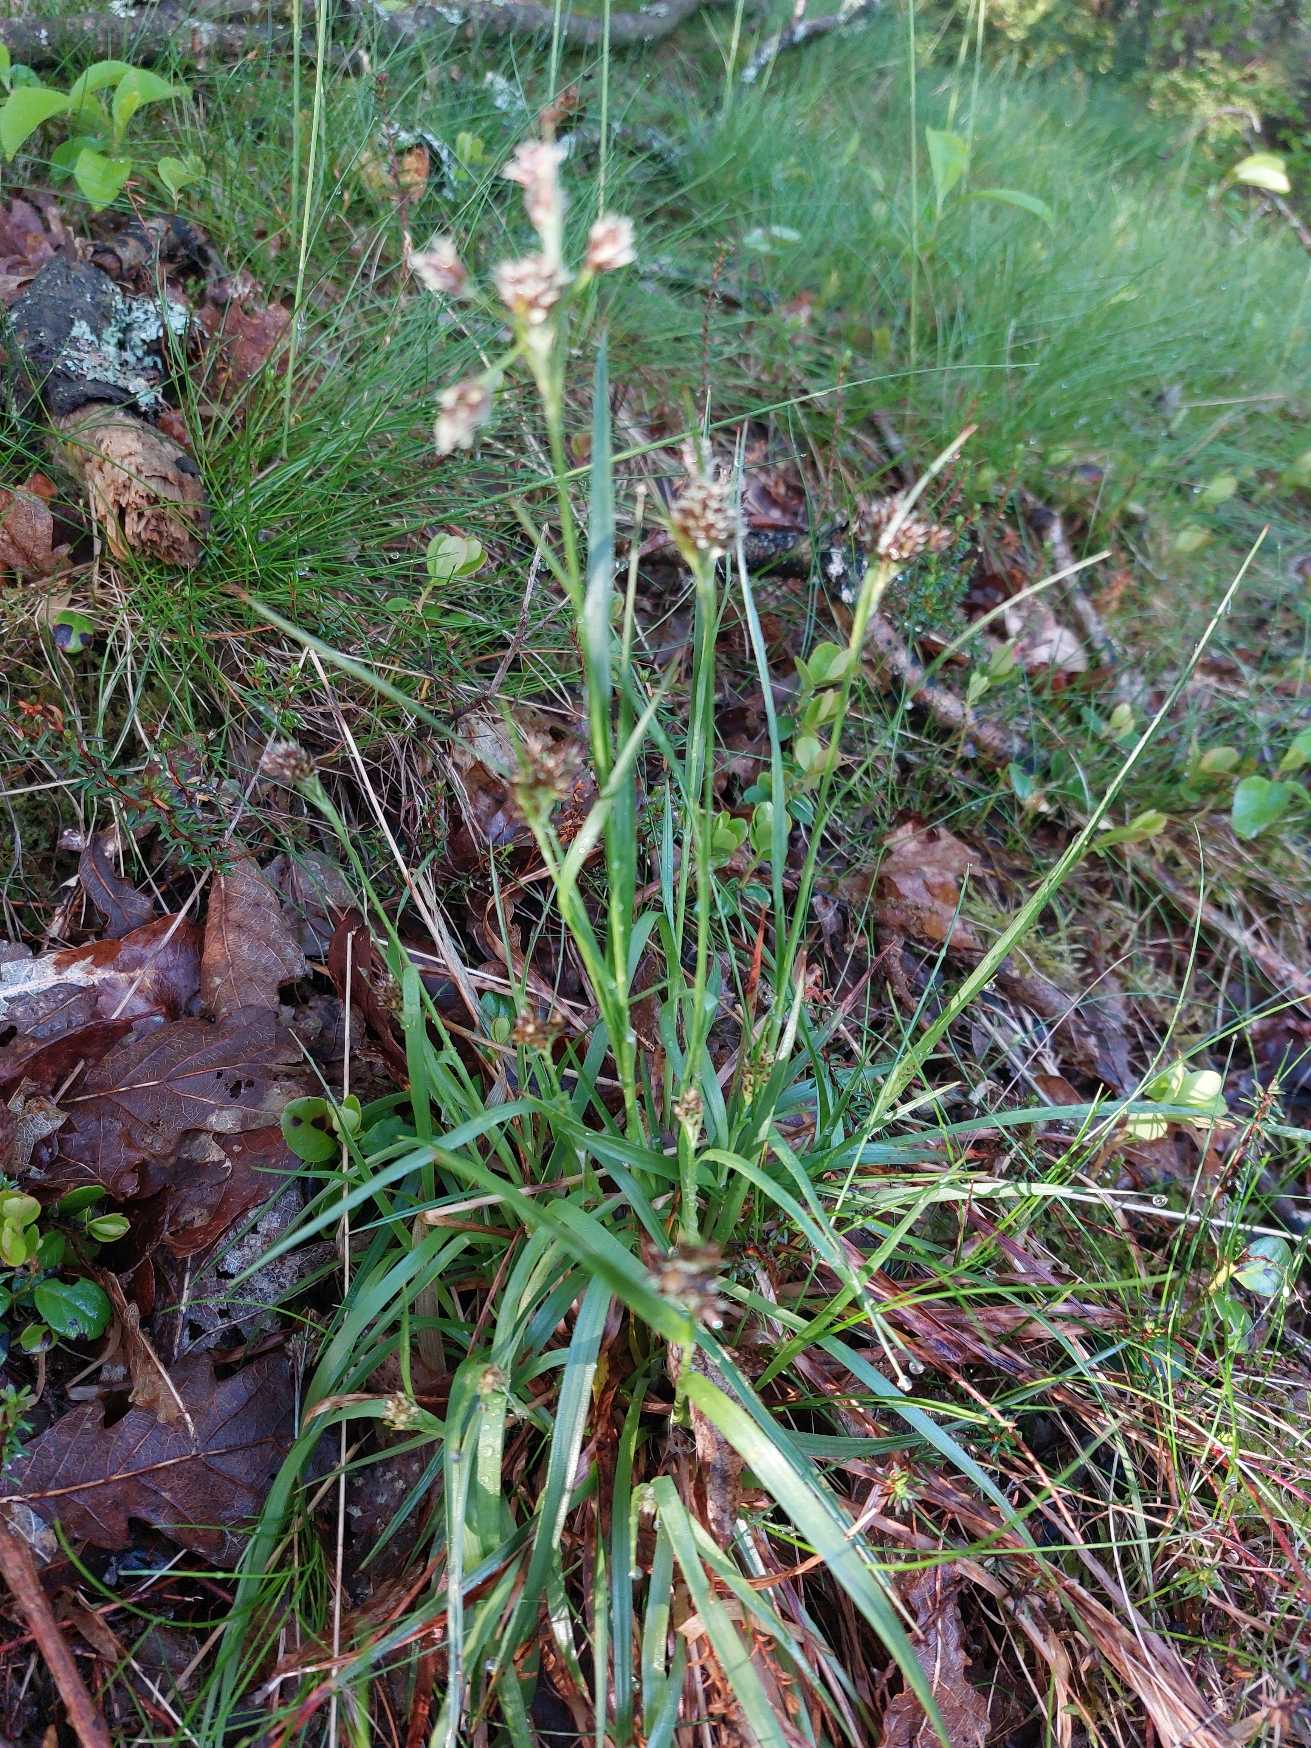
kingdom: Plantae
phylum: Tracheophyta
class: Liliopsida
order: Poales
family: Juncaceae
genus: Luzula
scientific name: Luzula multiflora
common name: Mangeblomstret frytle
